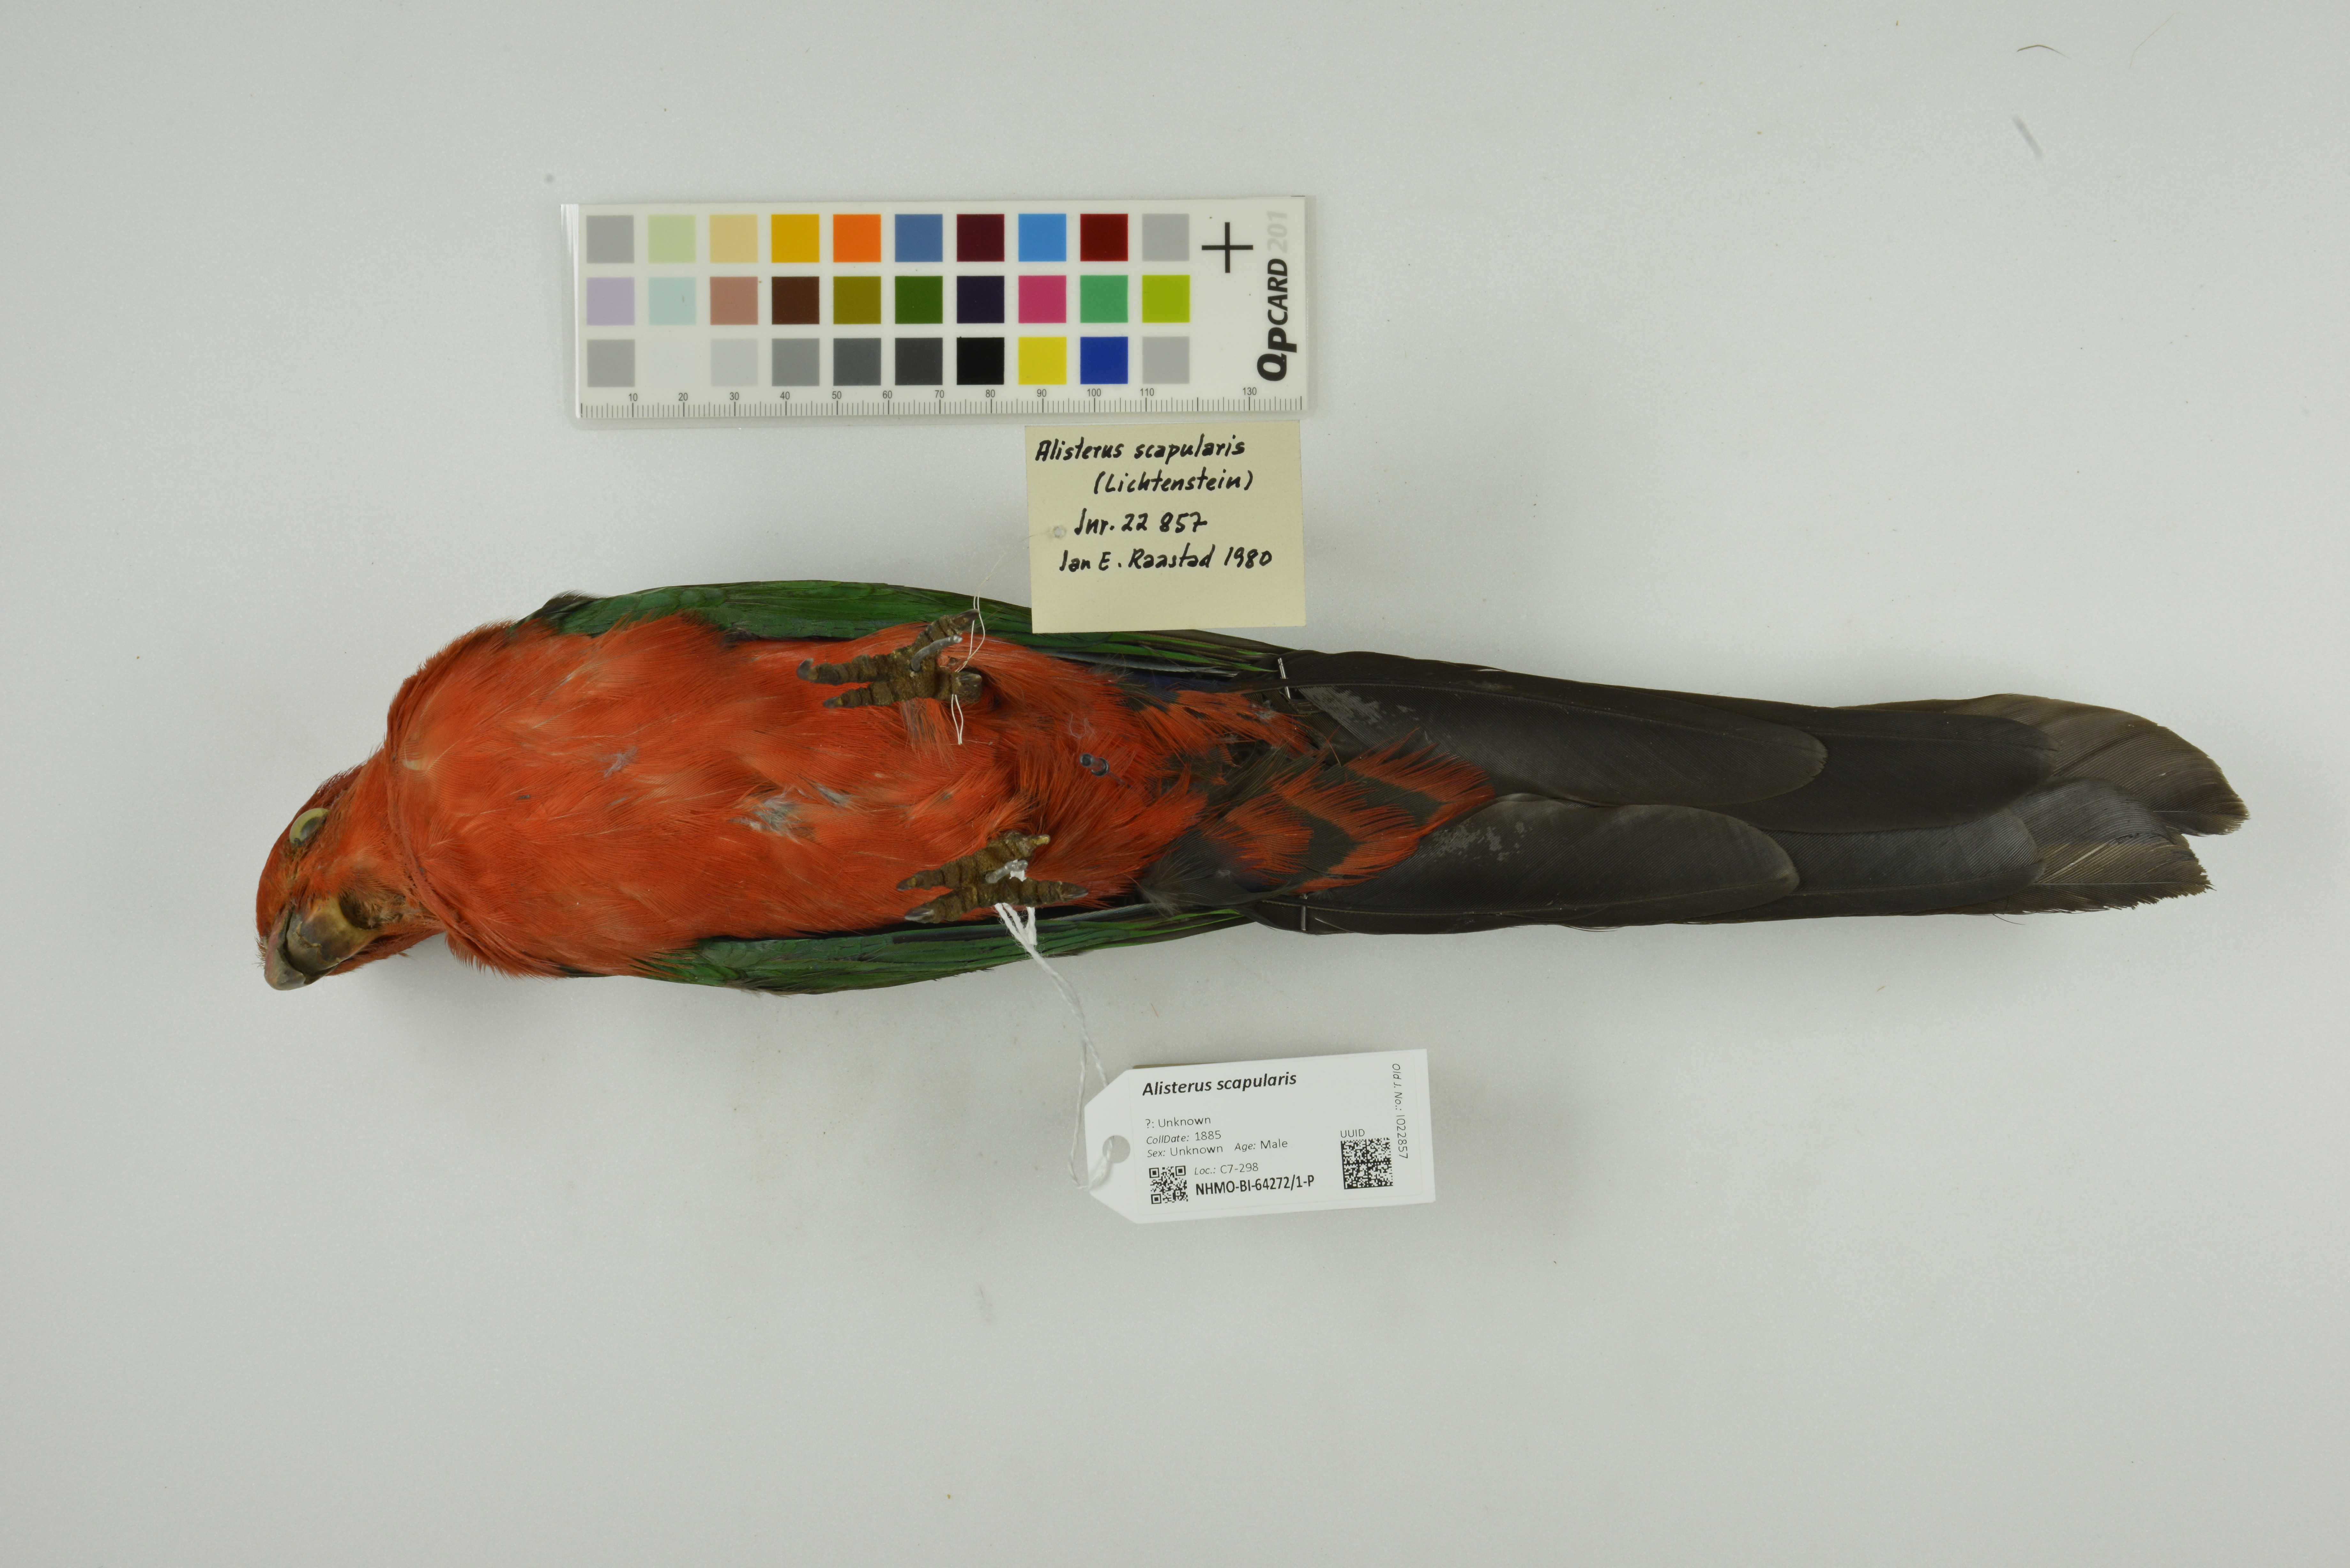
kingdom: Animalia
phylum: Chordata
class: Aves
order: Psittaciformes
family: Psittacidae
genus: Alisterus
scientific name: Alisterus scapularis
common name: Australian king parrot
